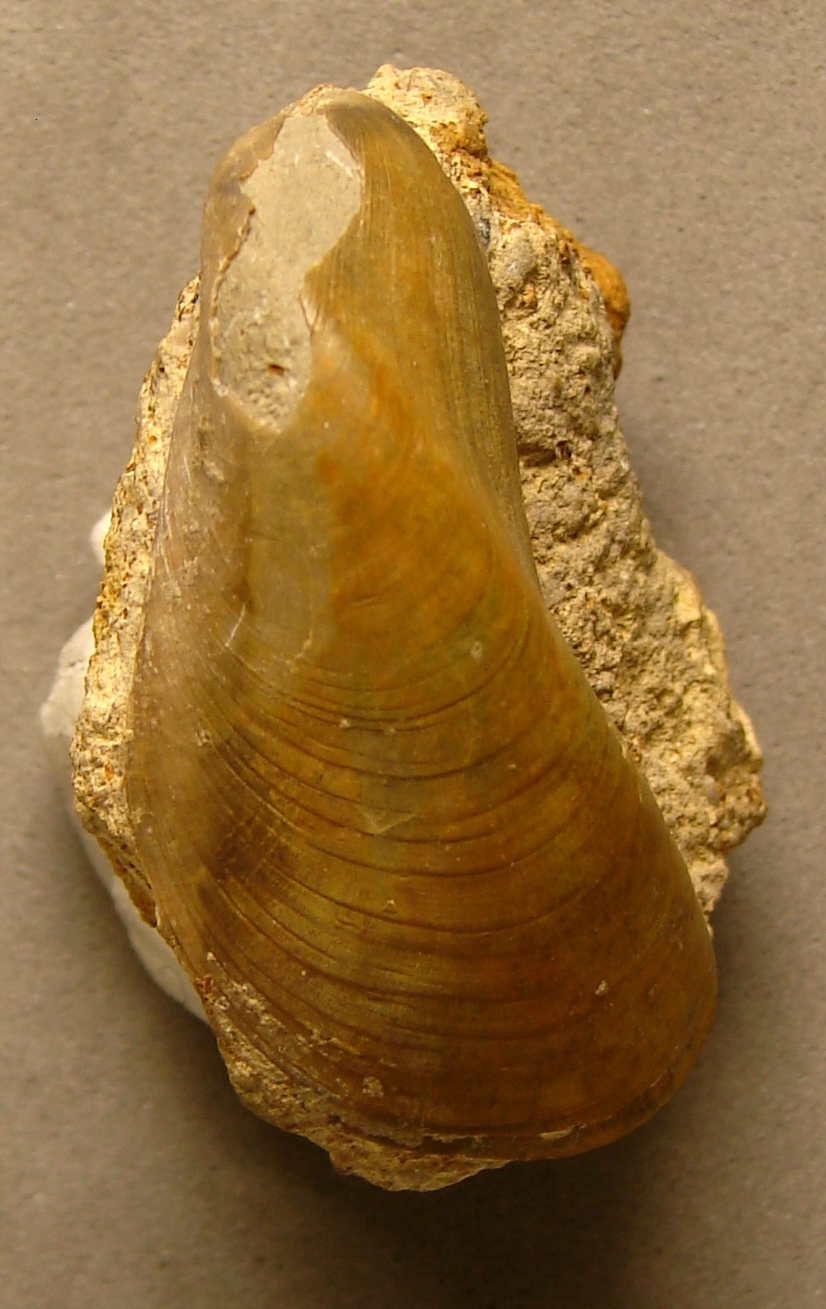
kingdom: Animalia
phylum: Mollusca
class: Bivalvia
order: Mytilida
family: Mytilidae
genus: Modiolus
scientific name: Modiolus
